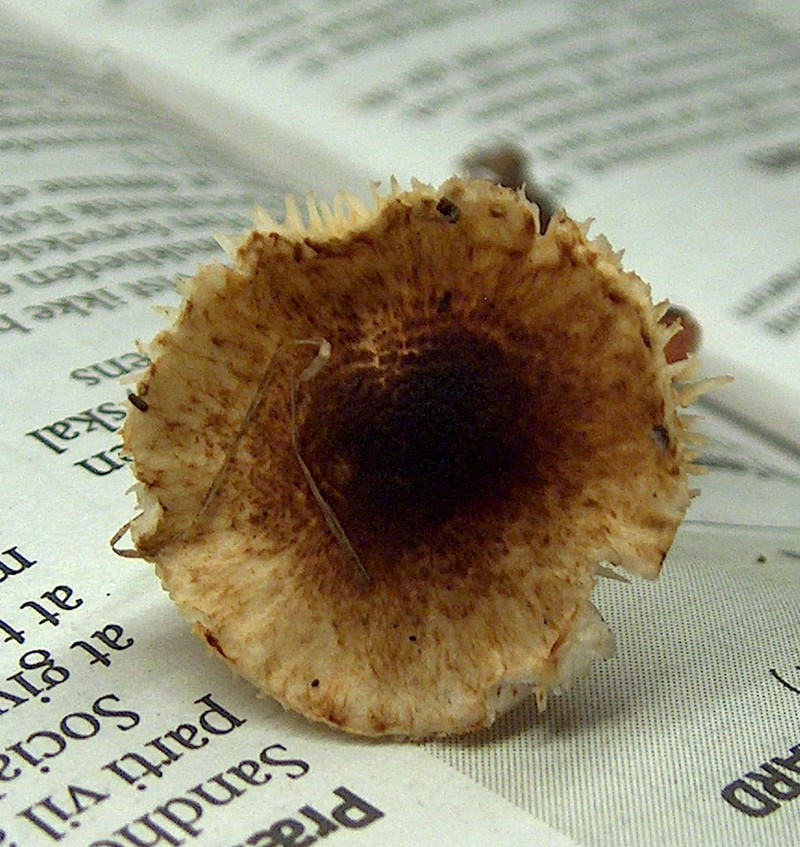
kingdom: Fungi
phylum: Basidiomycota
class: Agaricomycetes
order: Agaricales
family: Agaricaceae
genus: Lepiota
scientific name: Lepiota castanea
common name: kastaniebrun parasolhat
